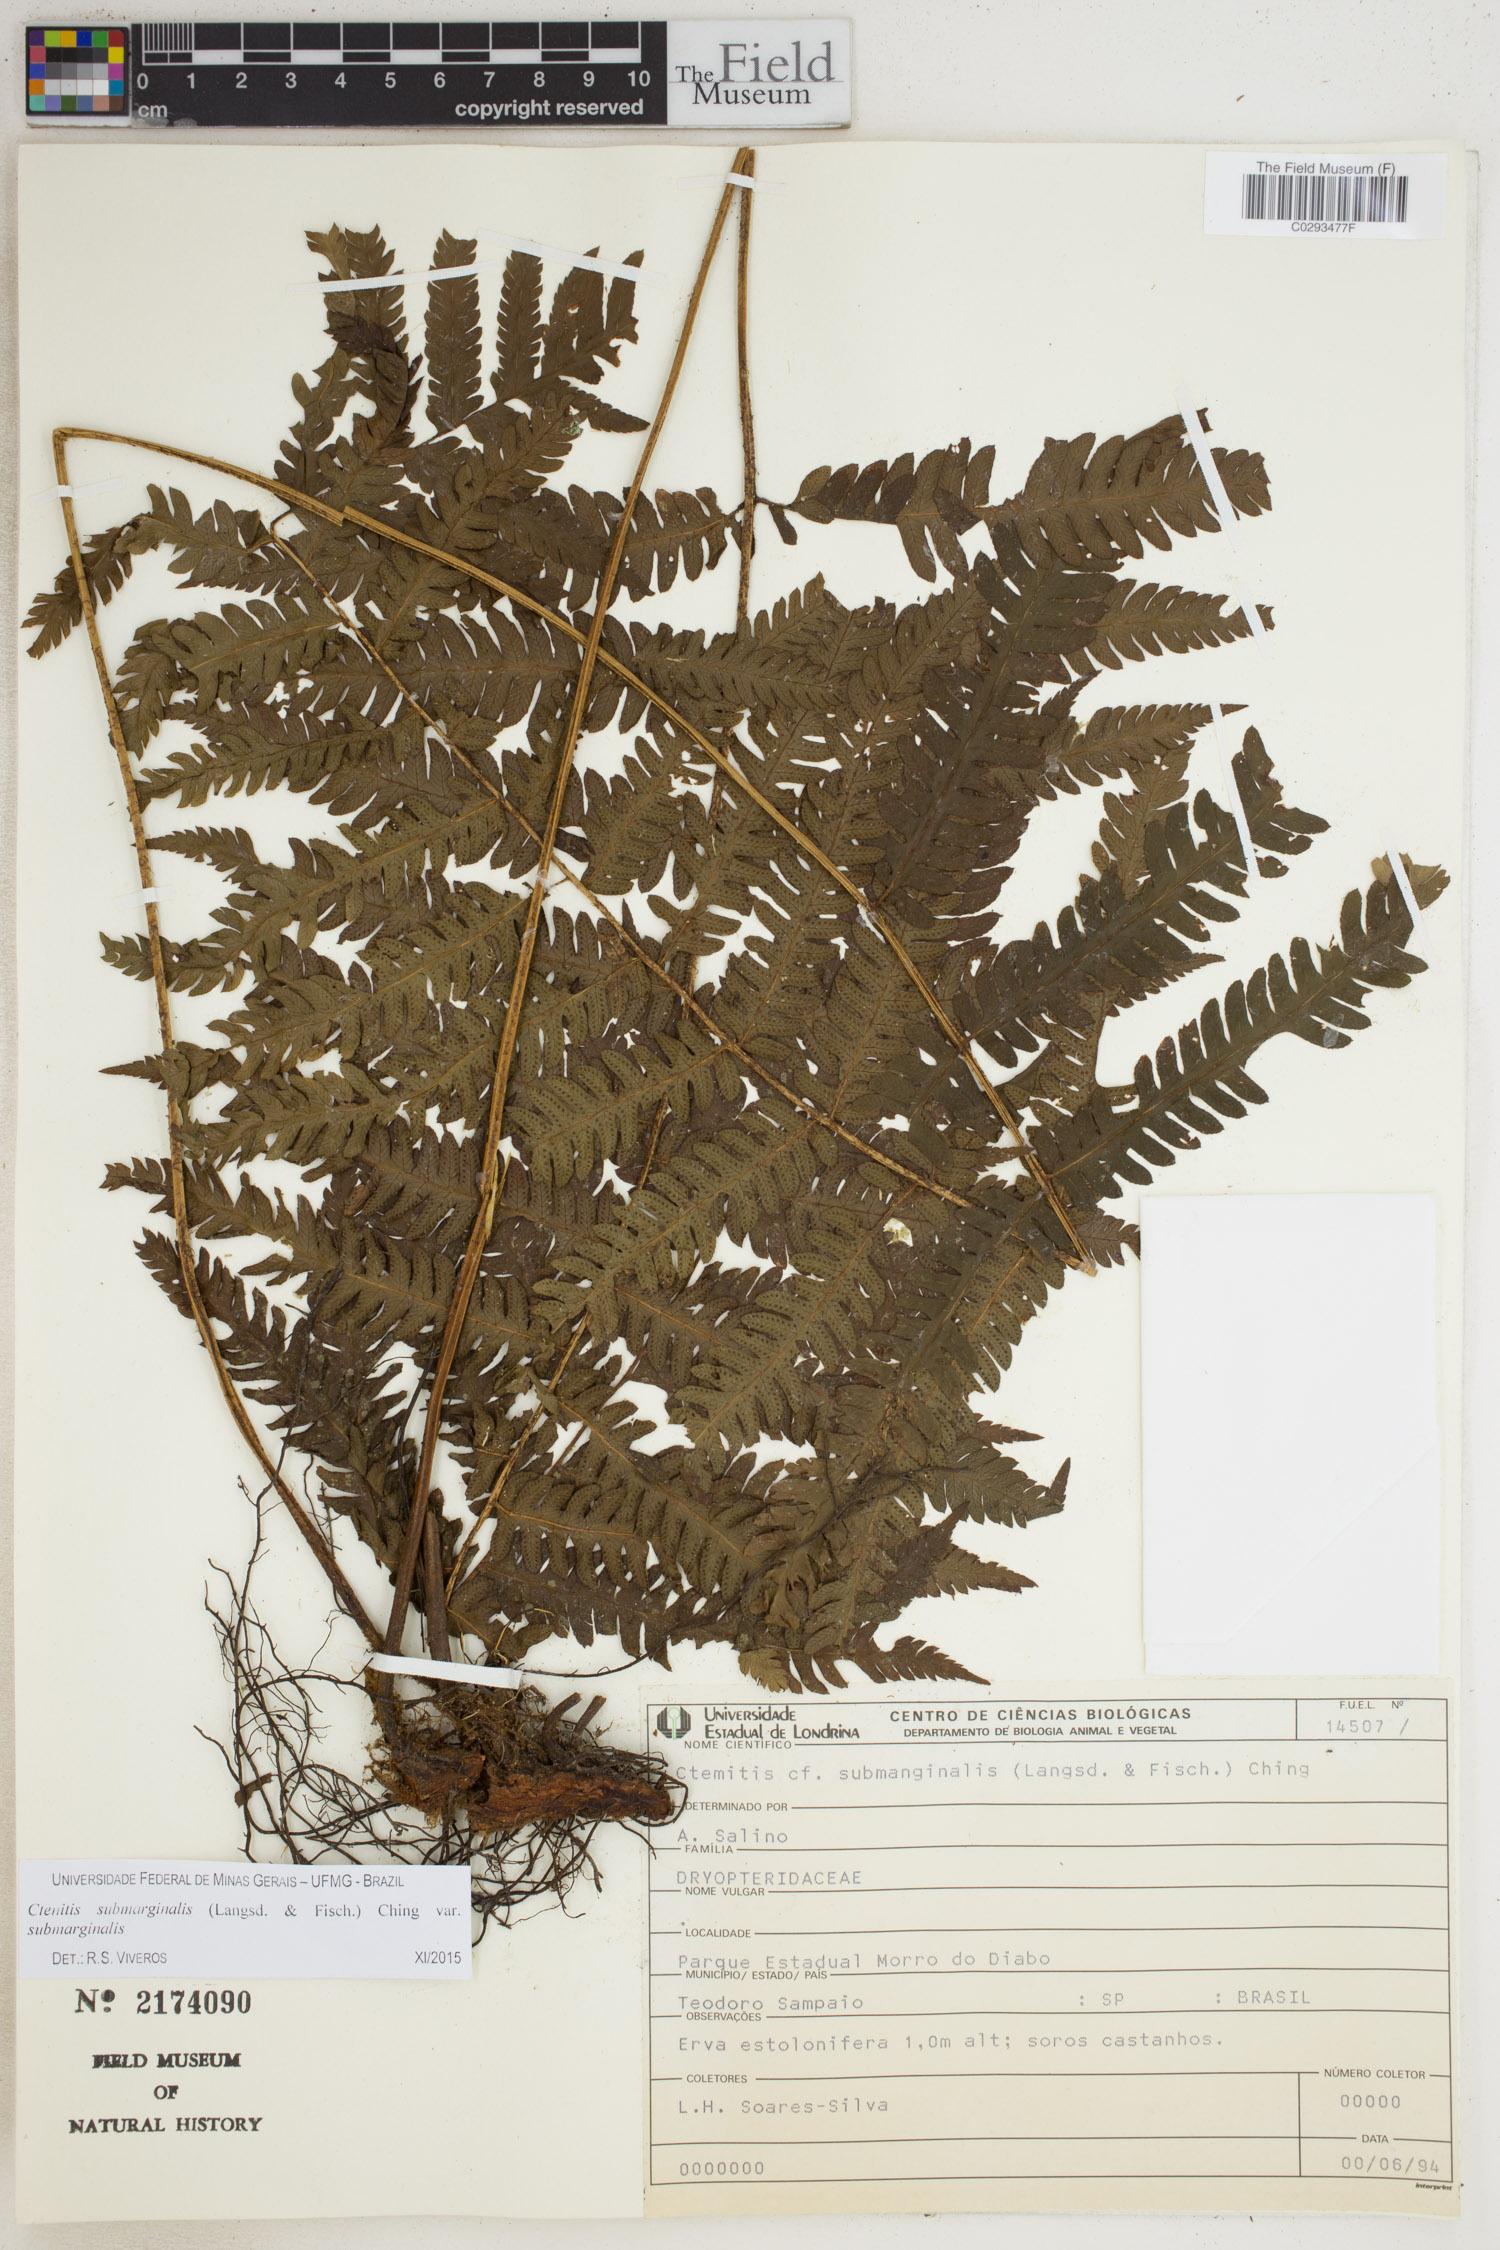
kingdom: Plantae
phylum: Tracheophyta
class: Polypodiopsida
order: Polypodiales
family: Dryopteridaceae
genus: Ctenitis
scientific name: Ctenitis submarginalis
